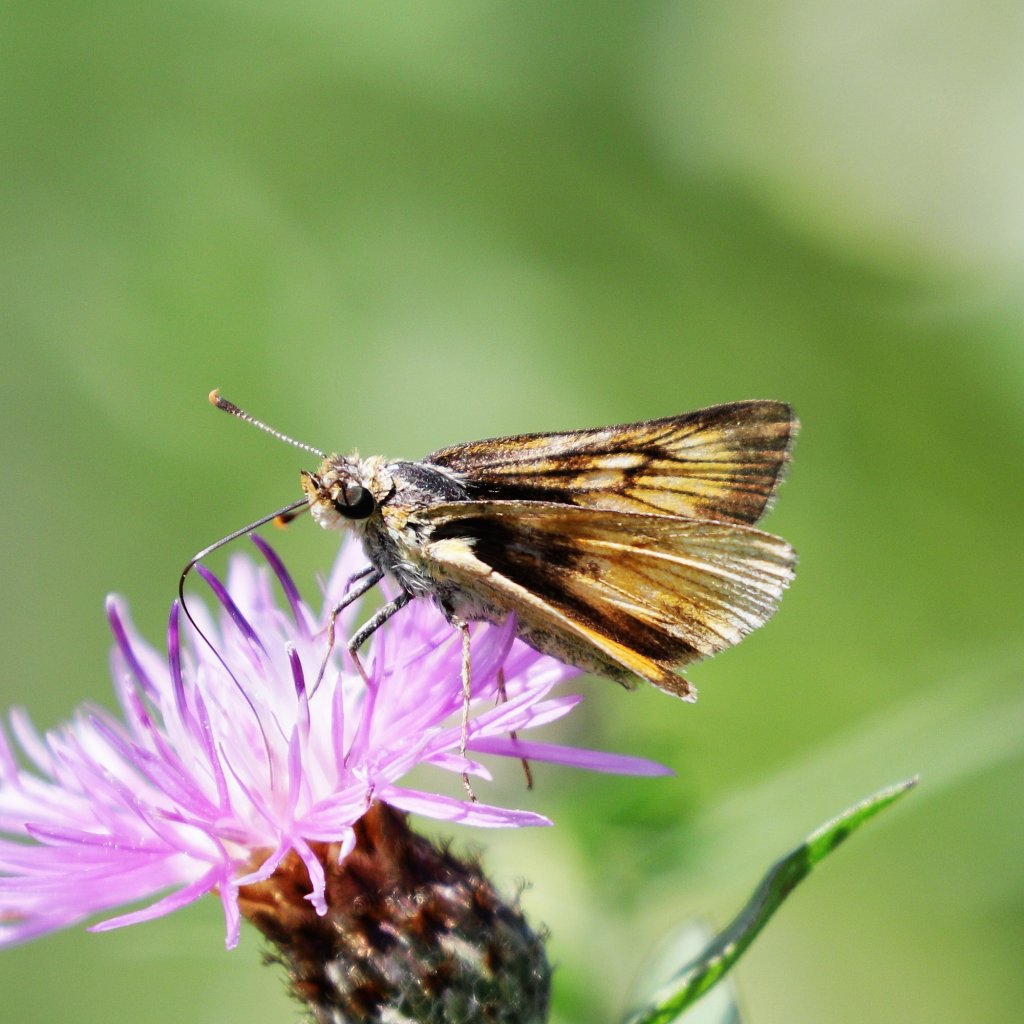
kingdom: Animalia
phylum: Arthropoda
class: Insecta
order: Lepidoptera
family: Hesperiidae
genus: Atrytone
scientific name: Atrytone delaware
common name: Delaware Skipper
